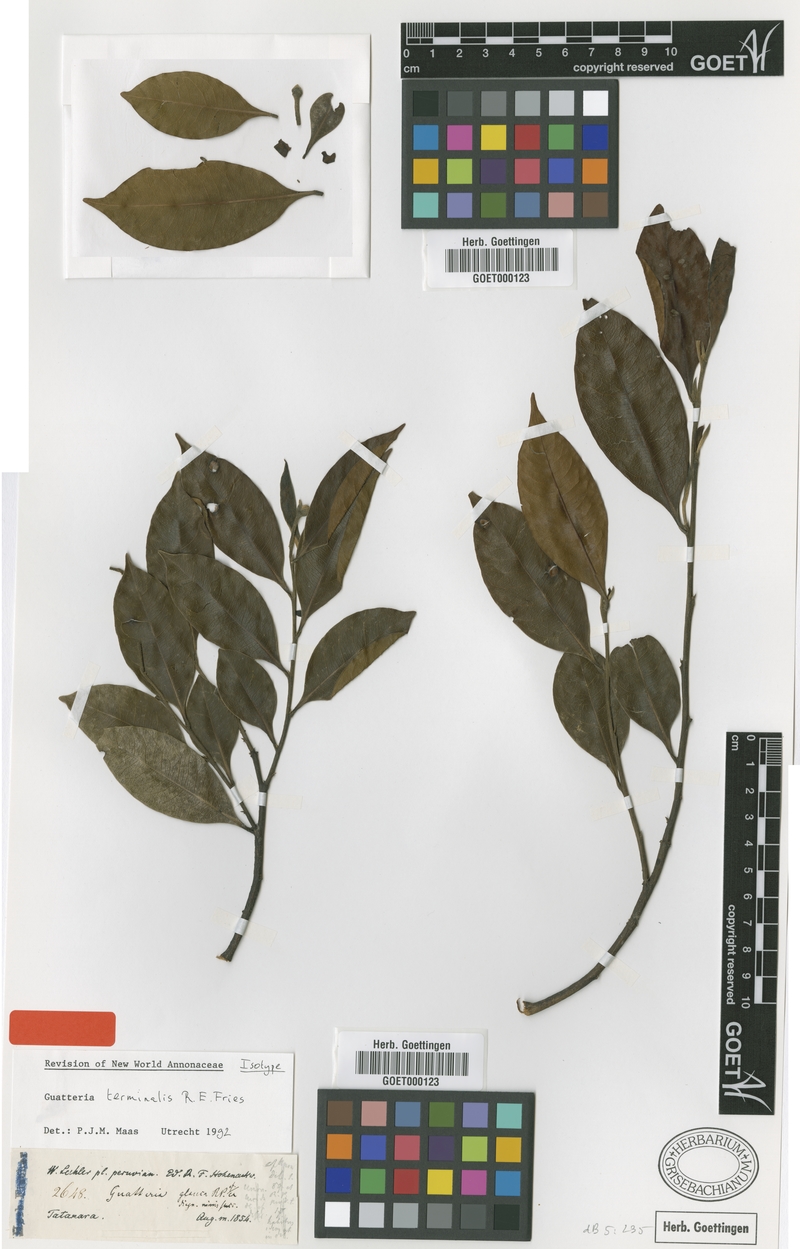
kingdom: Plantae
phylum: Tracheophyta
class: Magnoliopsida
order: Magnoliales
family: Annonaceae
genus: Guatteria
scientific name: Guatteria terminalis
